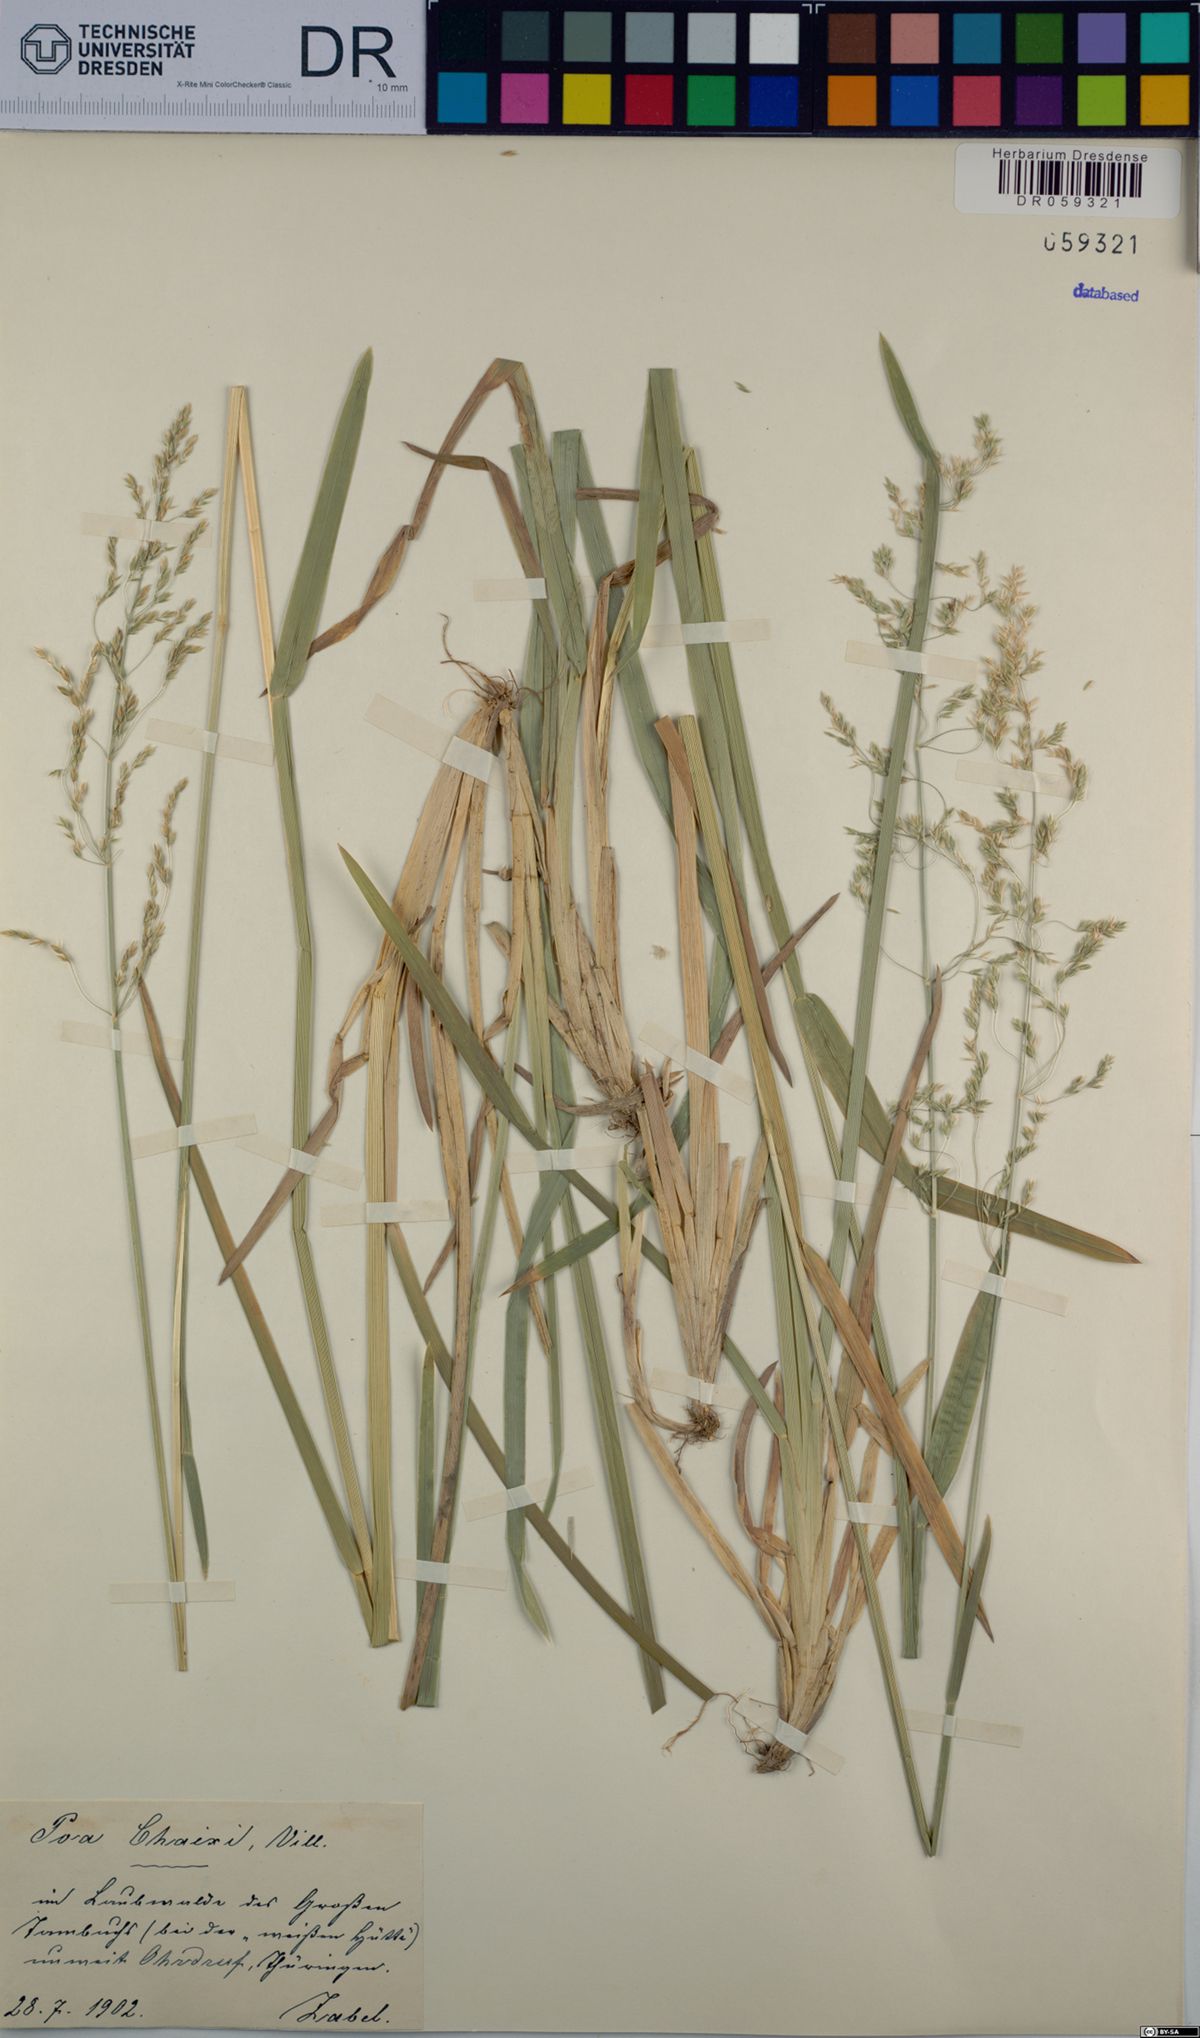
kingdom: Plantae
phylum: Tracheophyta
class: Liliopsida
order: Poales
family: Poaceae
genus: Poa
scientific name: Poa chaixii
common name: Broad-leaved meadow-grass
